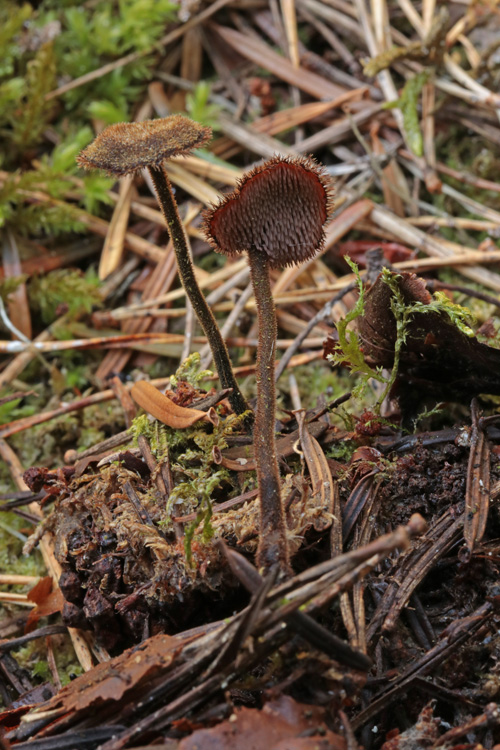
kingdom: Fungi
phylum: Basidiomycota
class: Agaricomycetes
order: Russulales
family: Auriscalpiaceae
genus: Auriscalpium
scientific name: Auriscalpium vulgare
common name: koglepigsvamp
